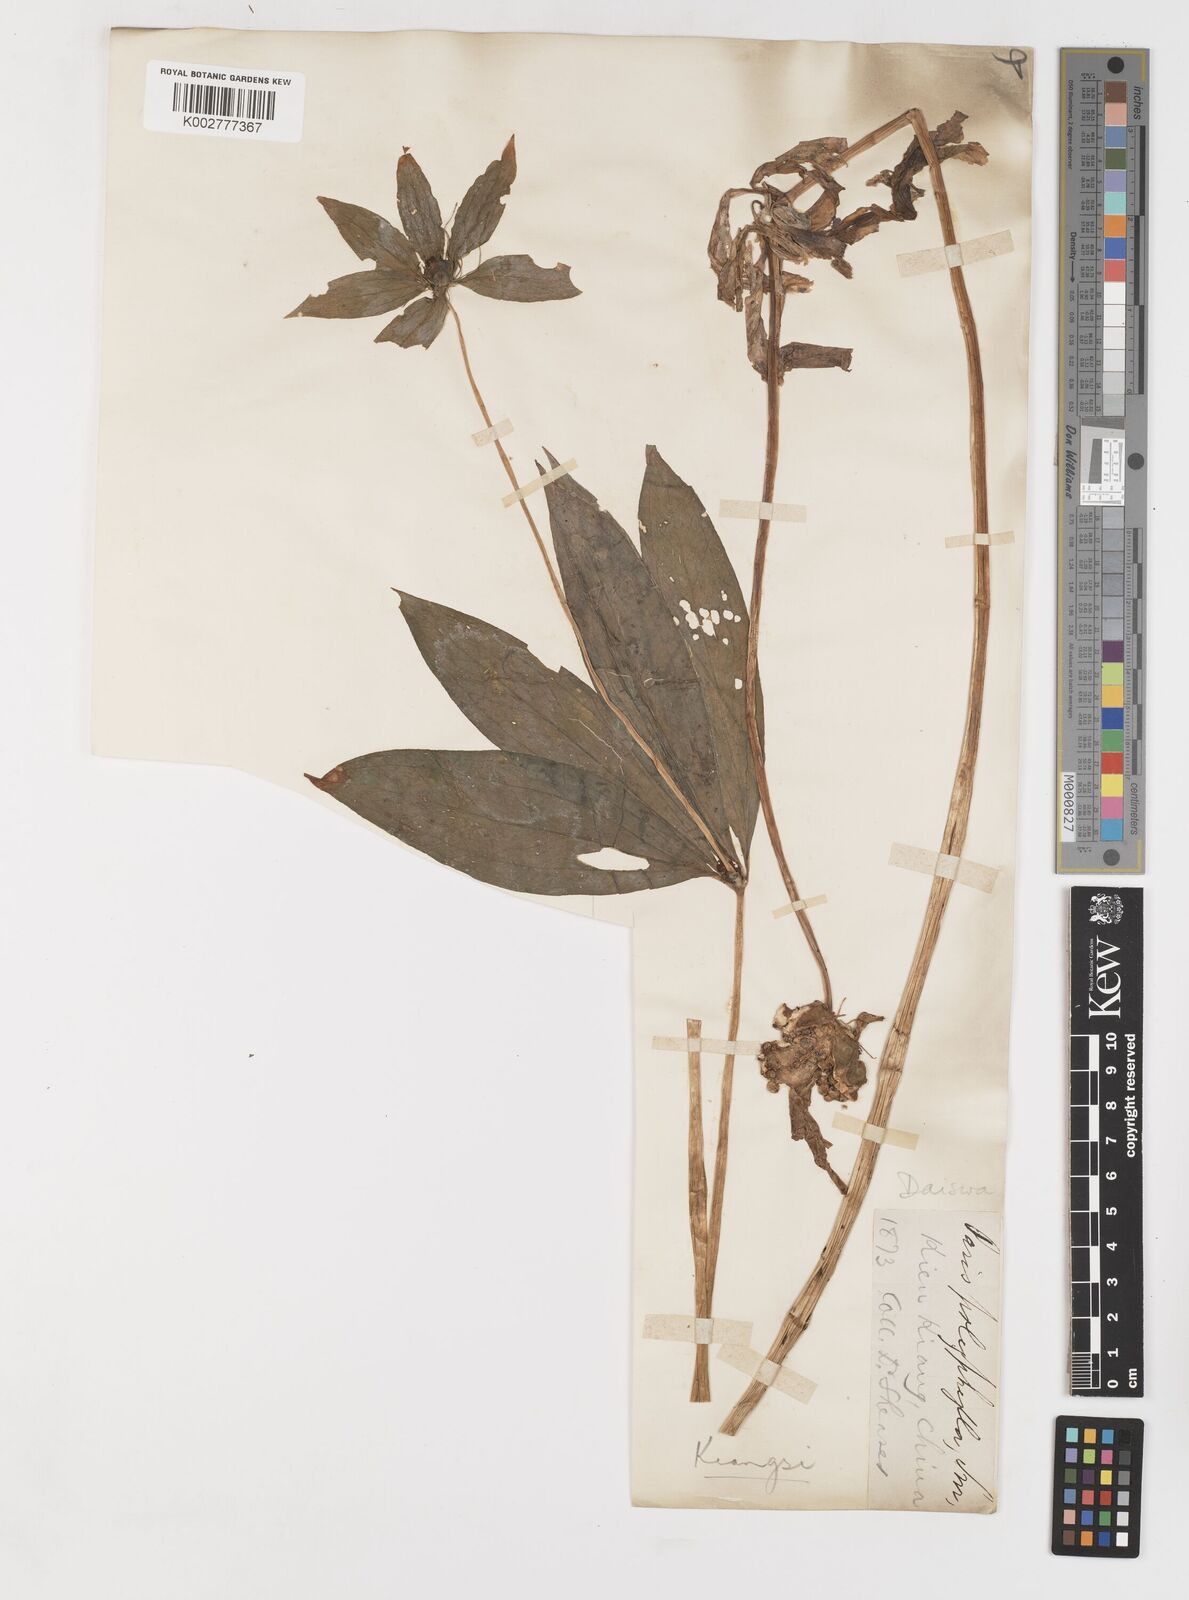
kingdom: Plantae
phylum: Tracheophyta
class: Liliopsida
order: Liliales
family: Melanthiaceae
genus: Paris
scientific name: Paris
